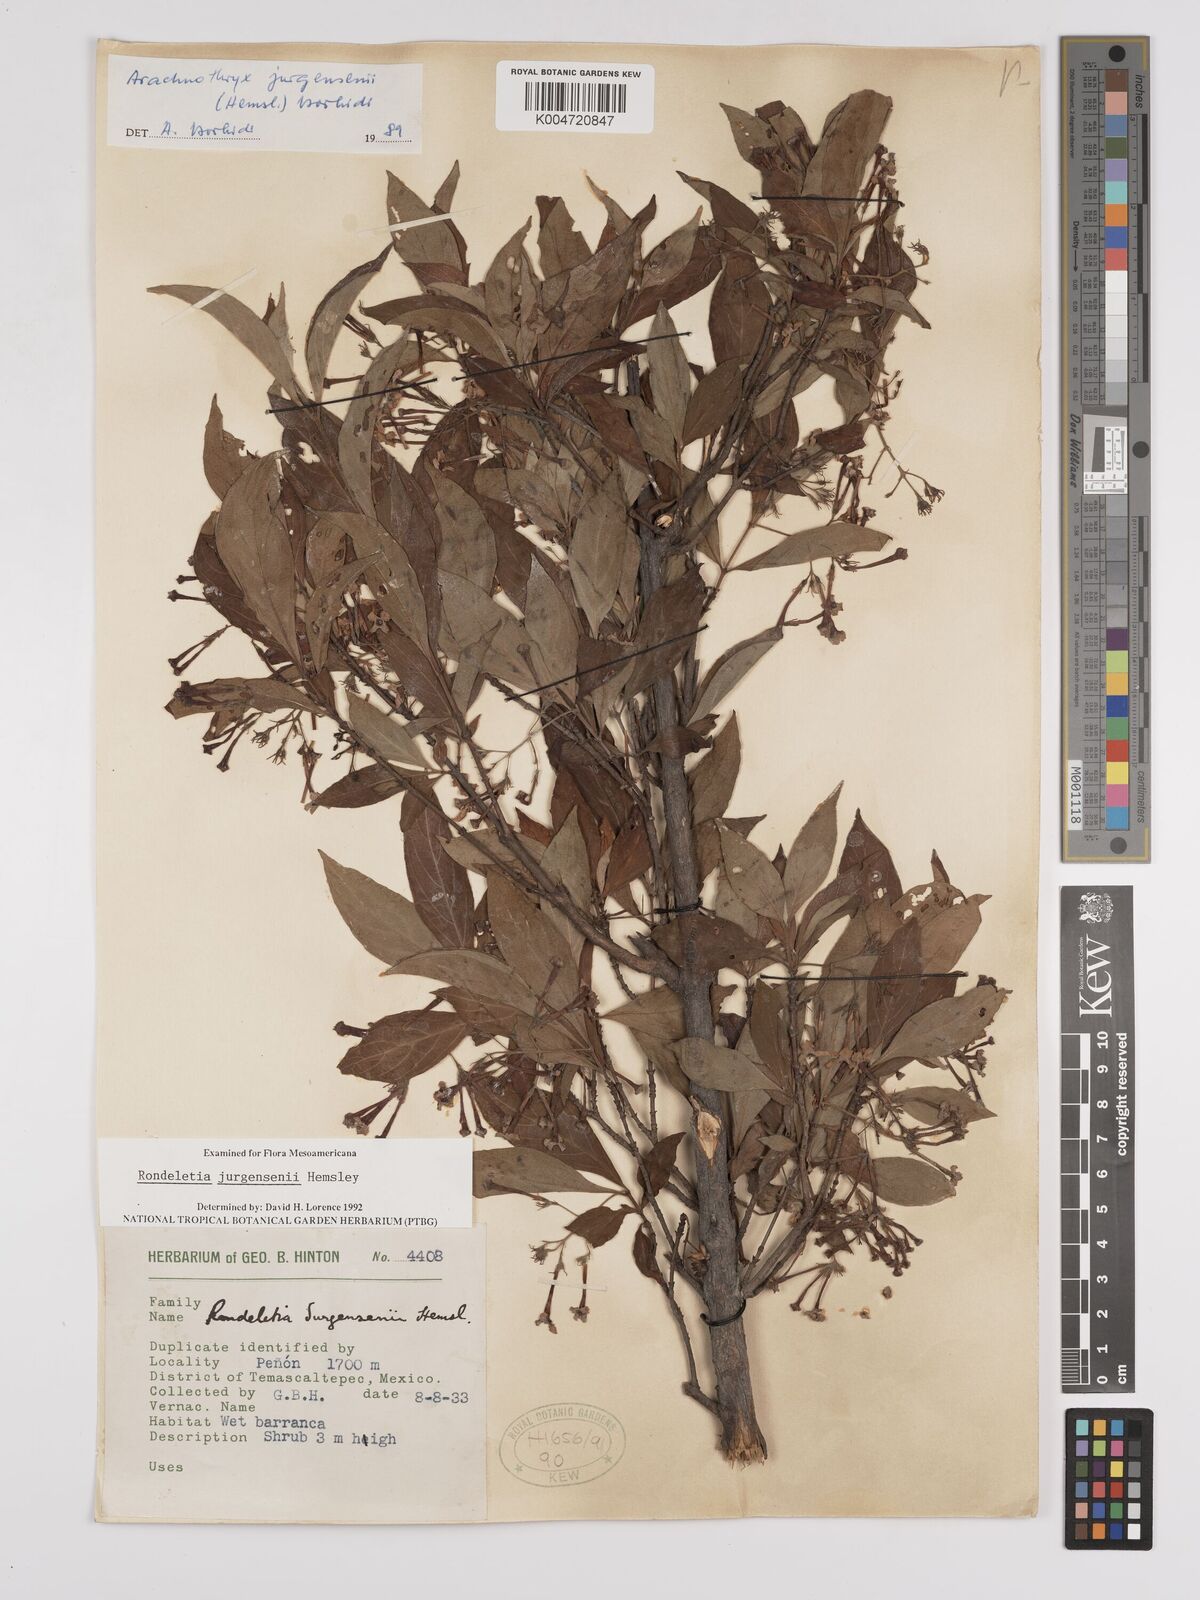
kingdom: Plantae
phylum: Tracheophyta
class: Magnoliopsida
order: Gentianales
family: Rubiaceae
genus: Arachnothryx
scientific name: Arachnothryx jurgensenii
